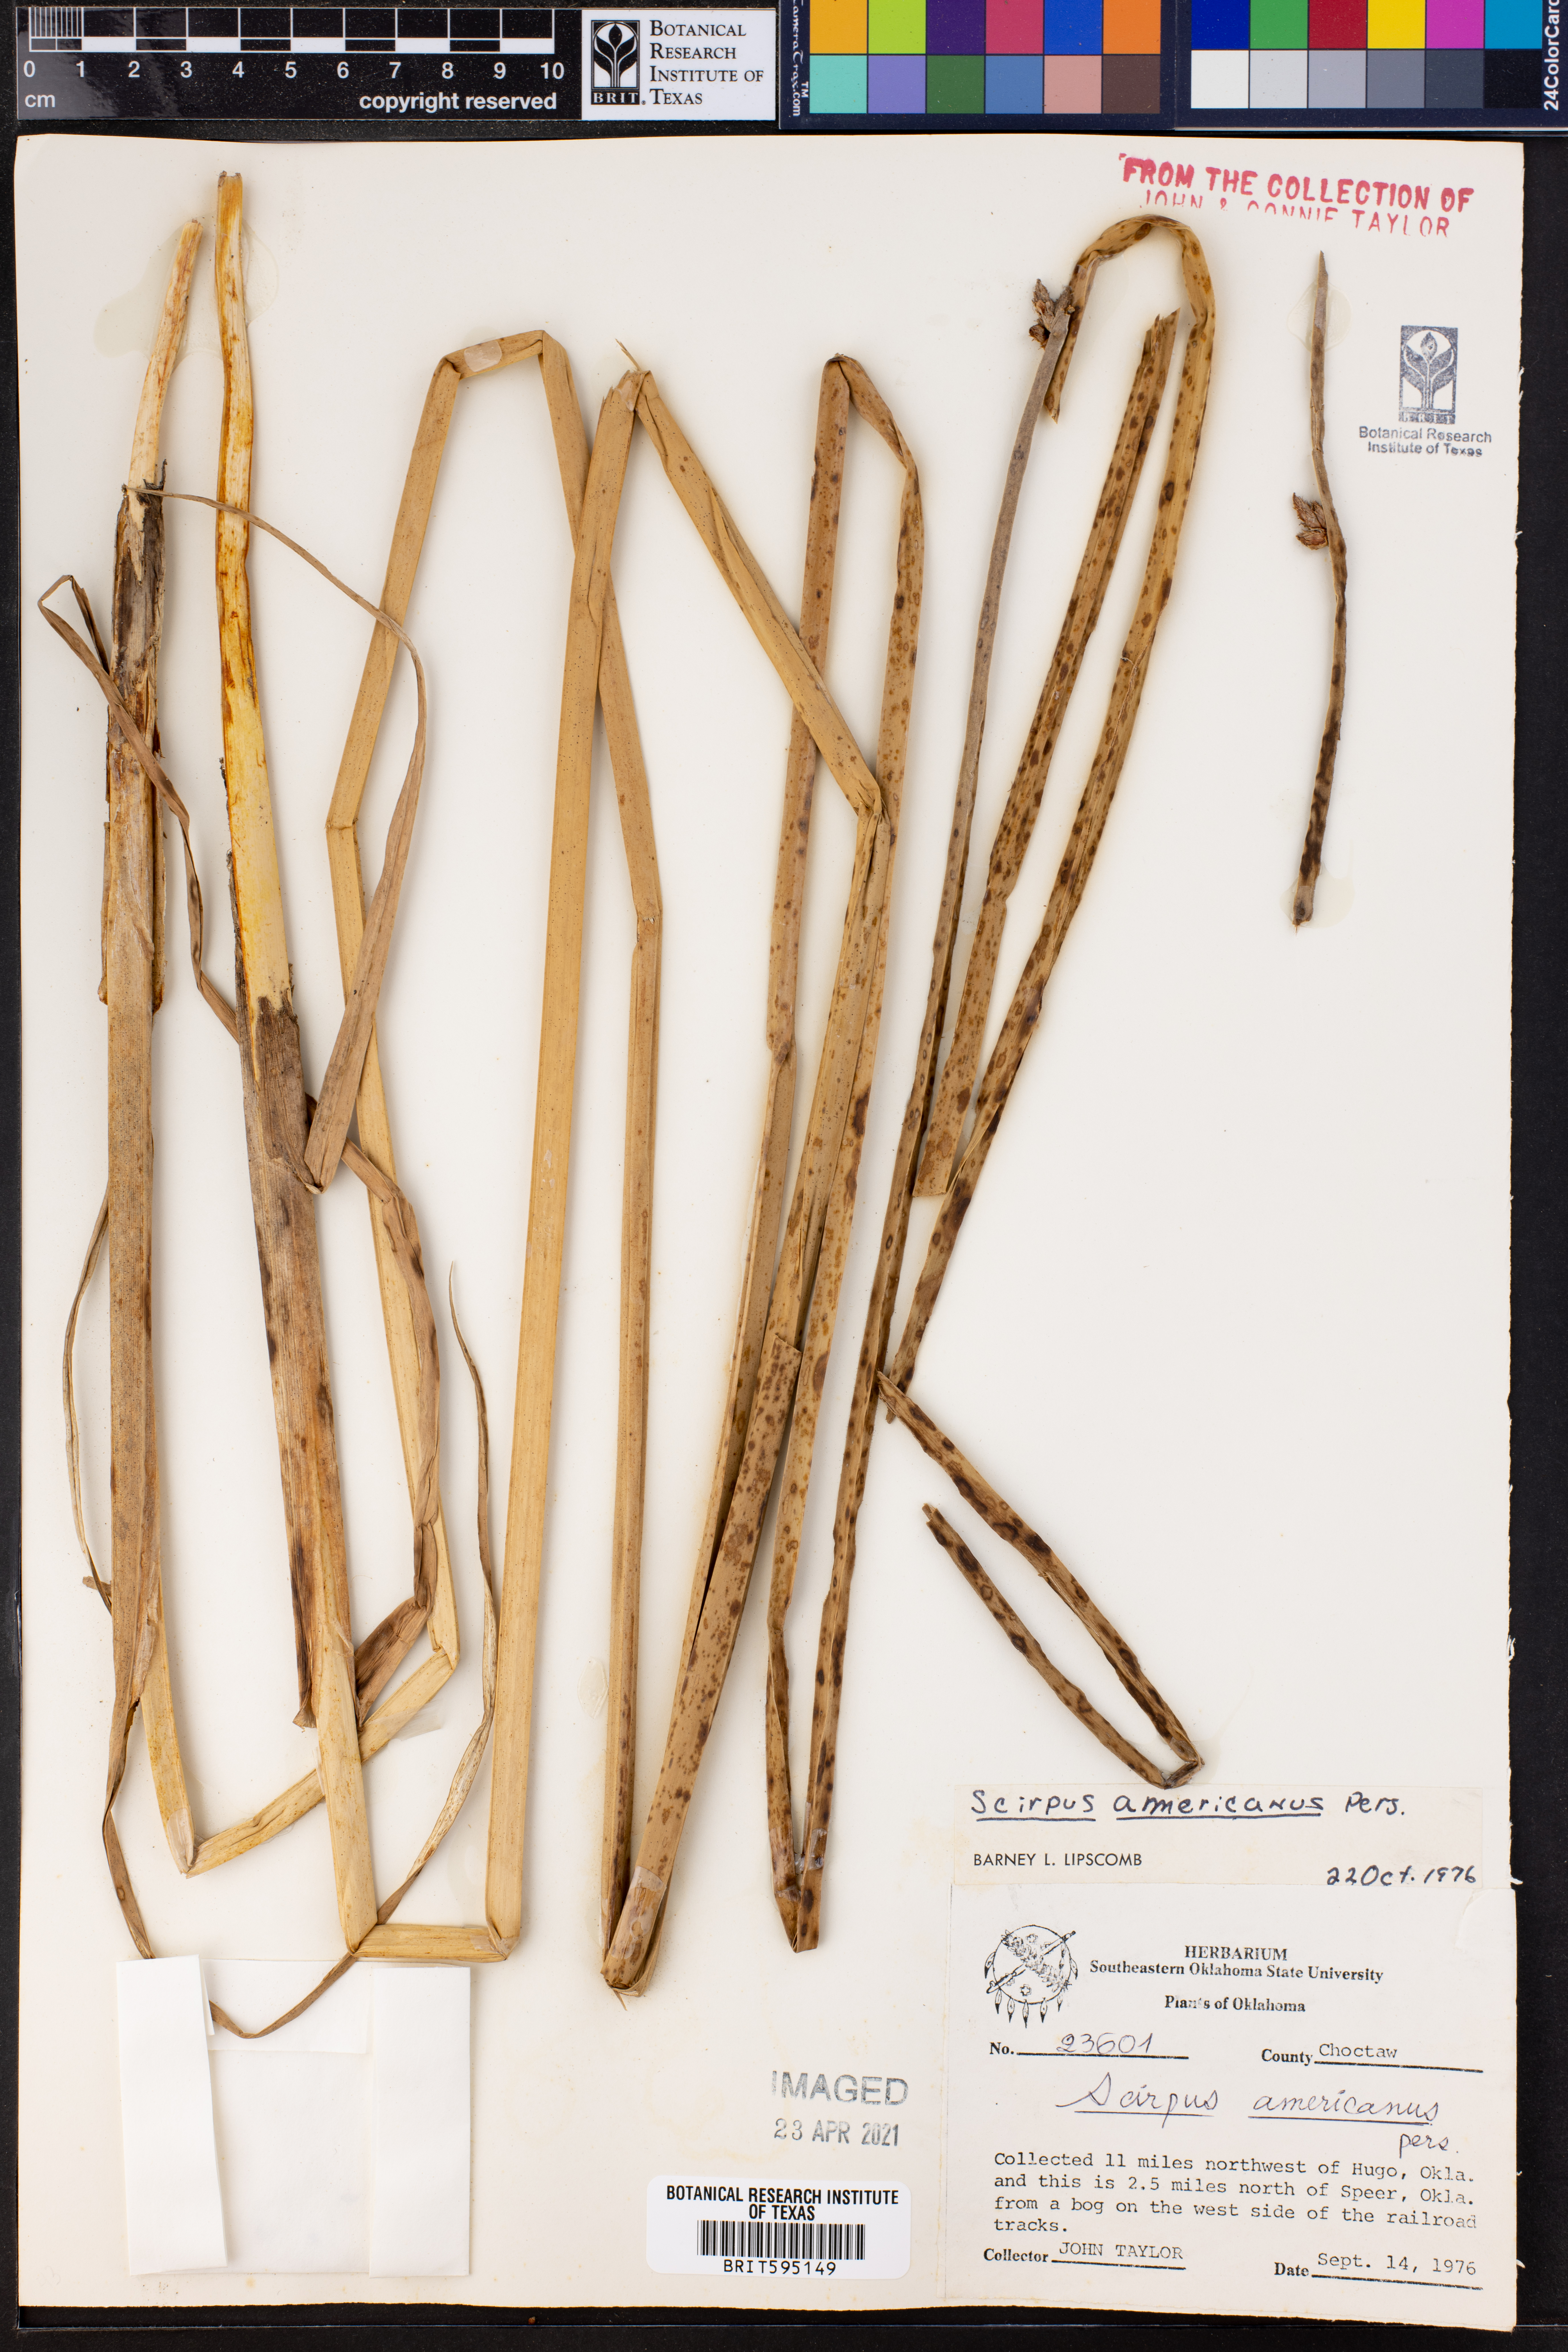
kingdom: Plantae
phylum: Tracheophyta
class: Liliopsida
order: Poales
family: Cyperaceae
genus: Schoenoplectus
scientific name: Schoenoplectus americanus
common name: American three-square bulrush
